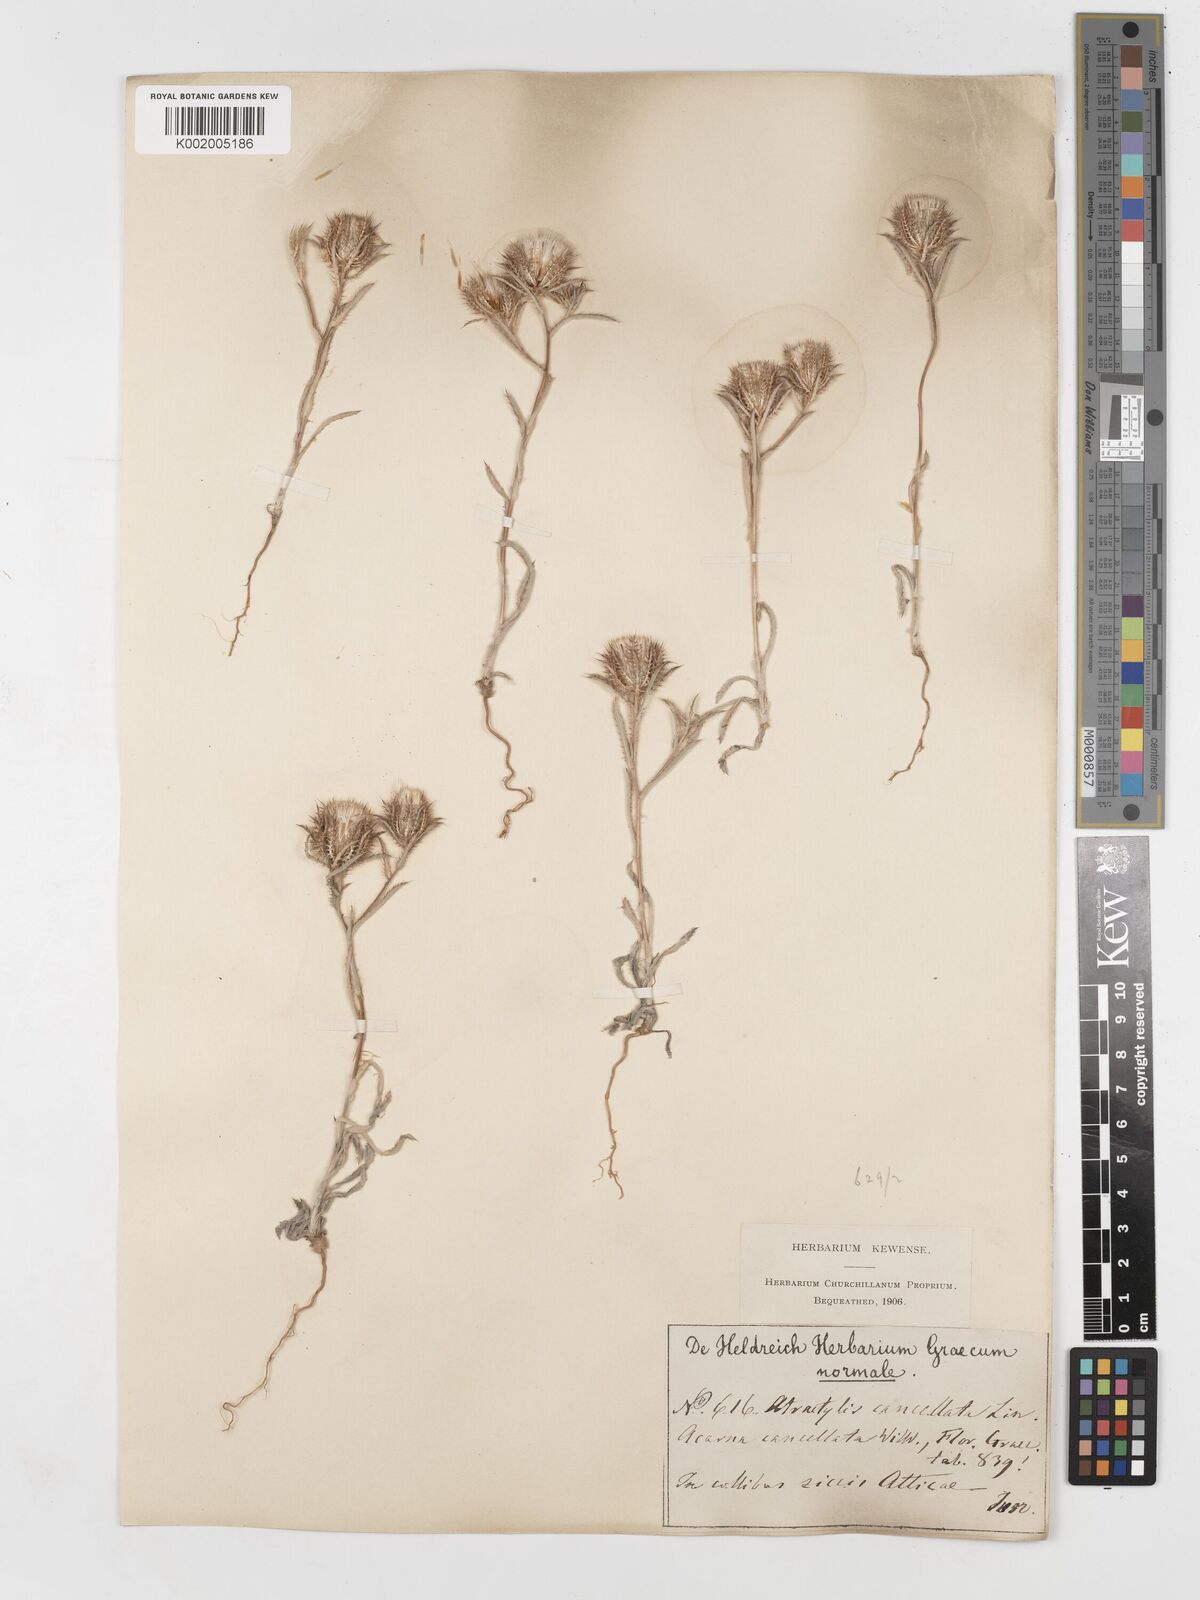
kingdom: Plantae
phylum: Tracheophyta
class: Magnoliopsida
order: Asterales
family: Asteraceae
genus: Atractylis
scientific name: Atractylis cancellata
